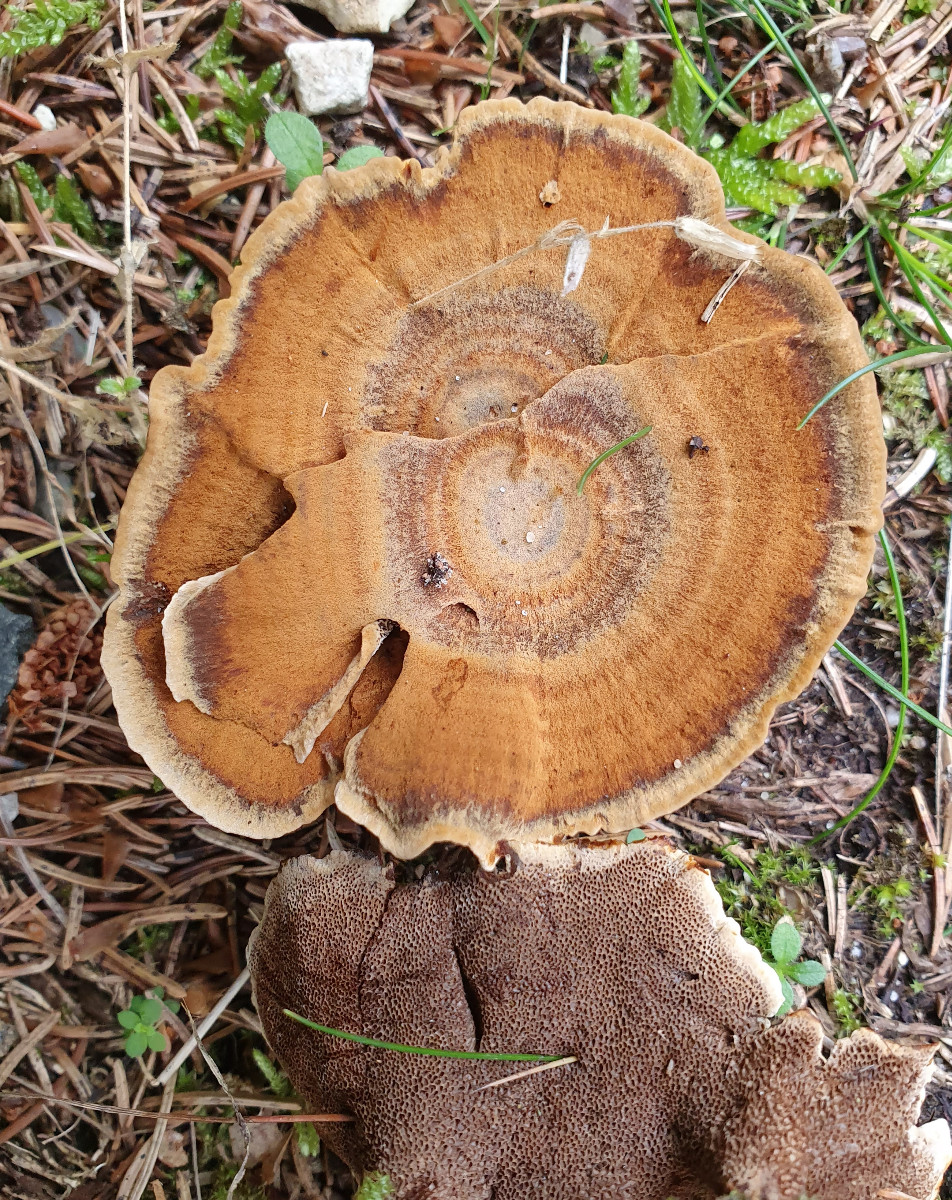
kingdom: Fungi
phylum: Basidiomycota
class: Agaricomycetes
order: Hymenochaetales
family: Hymenochaetaceae
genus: Coltricia
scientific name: Coltricia perennis
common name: almindelig sandporesvamp
